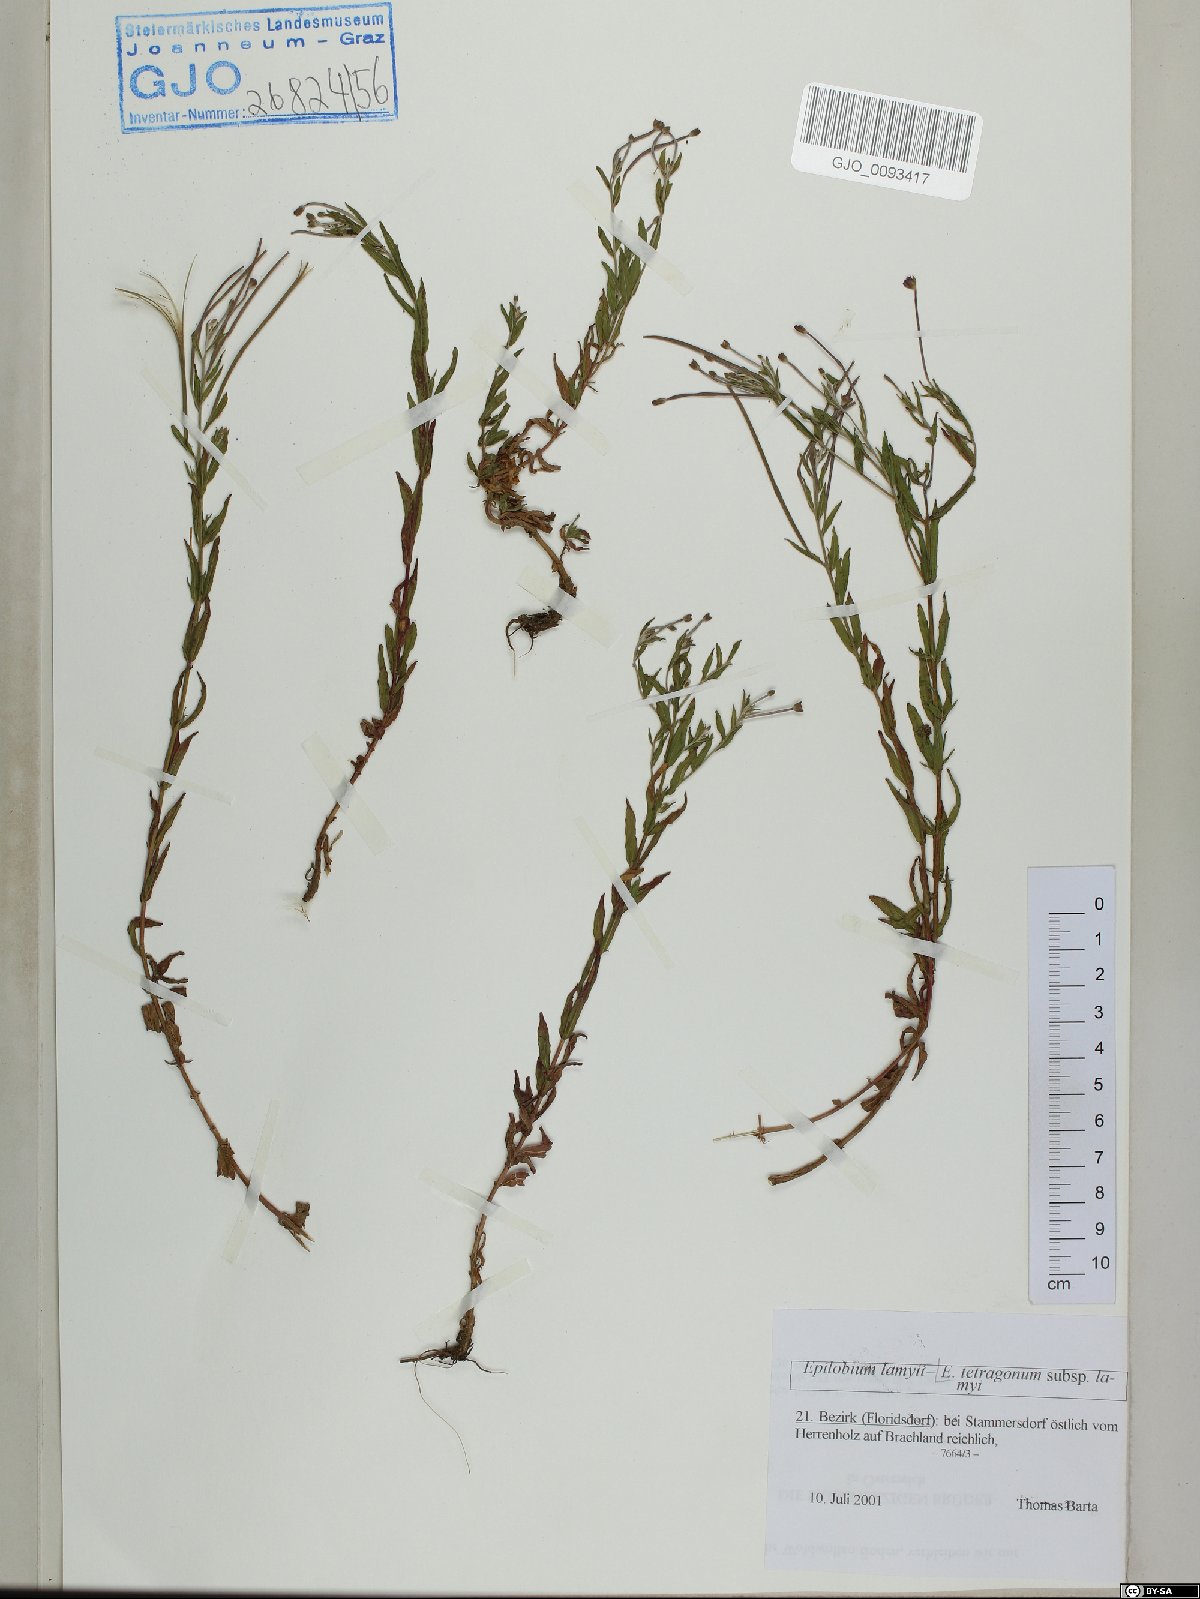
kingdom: Plantae
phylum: Tracheophyta
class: Magnoliopsida
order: Myrtales
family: Onagraceae
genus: Epilobium
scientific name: Epilobium lamyi
